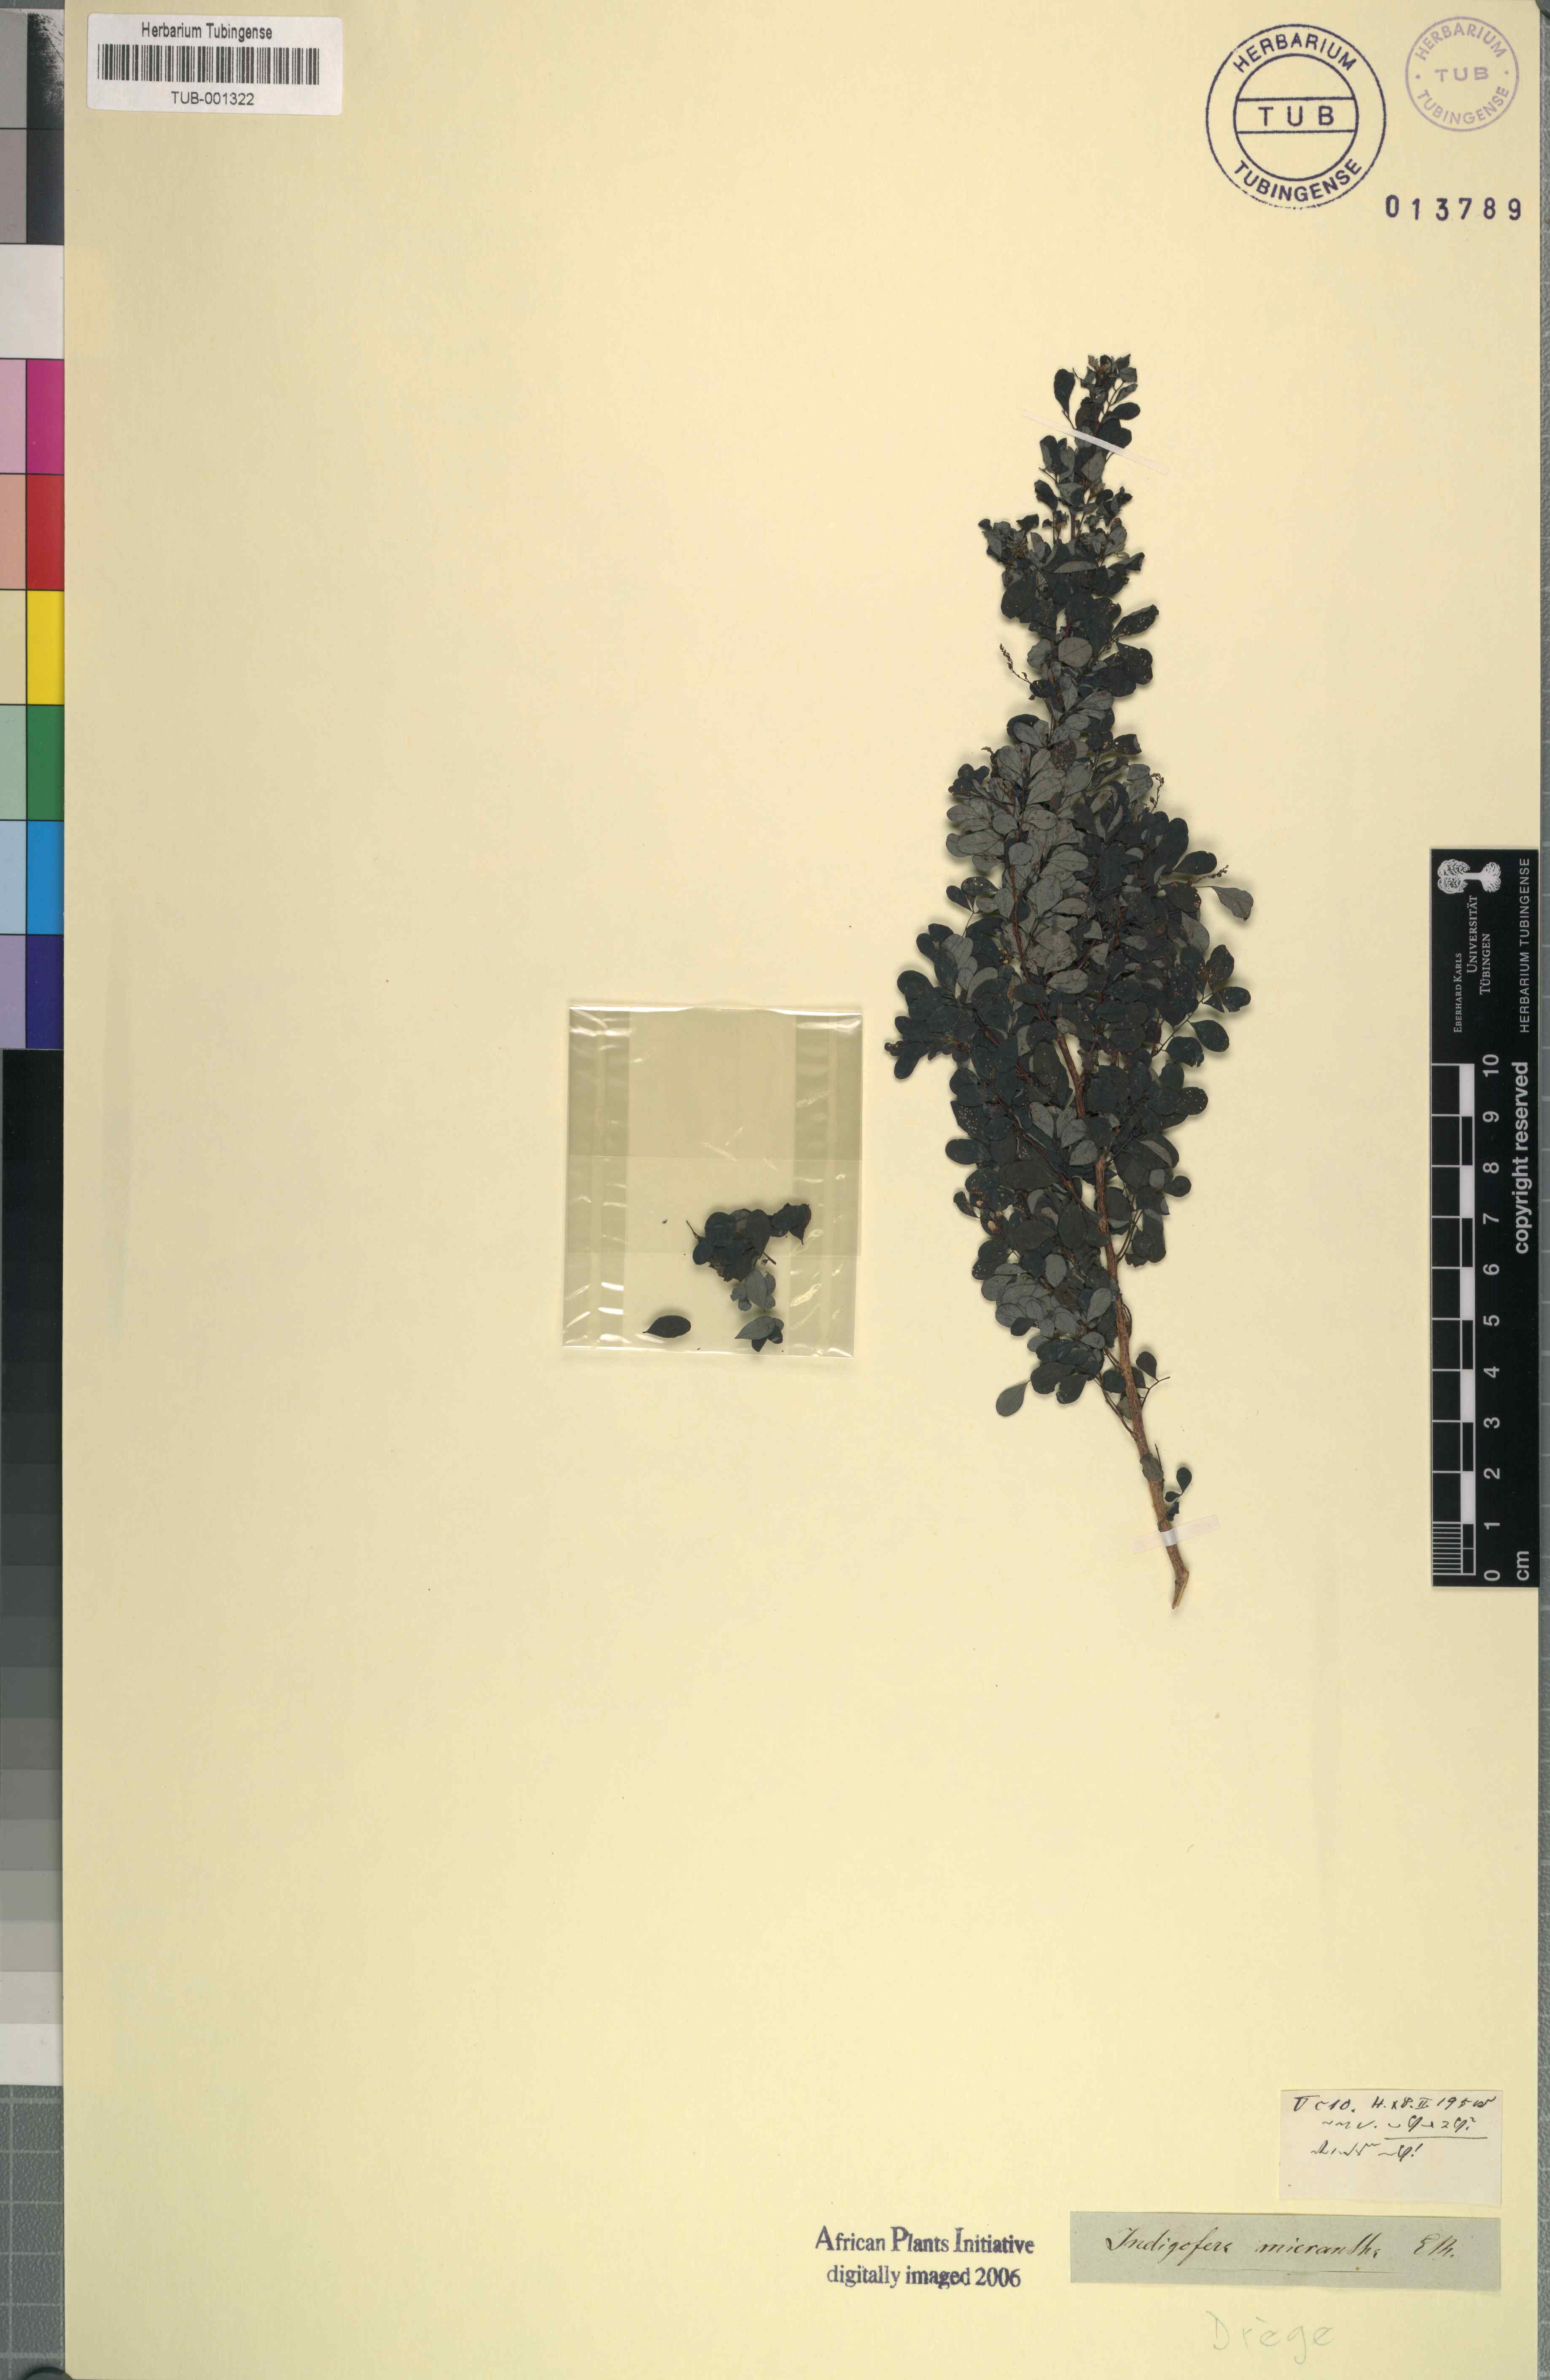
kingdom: Plantae
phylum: Tracheophyta
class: Magnoliopsida
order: Fabales
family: Fabaceae
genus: Indigofera
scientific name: Indigofera micrantha
